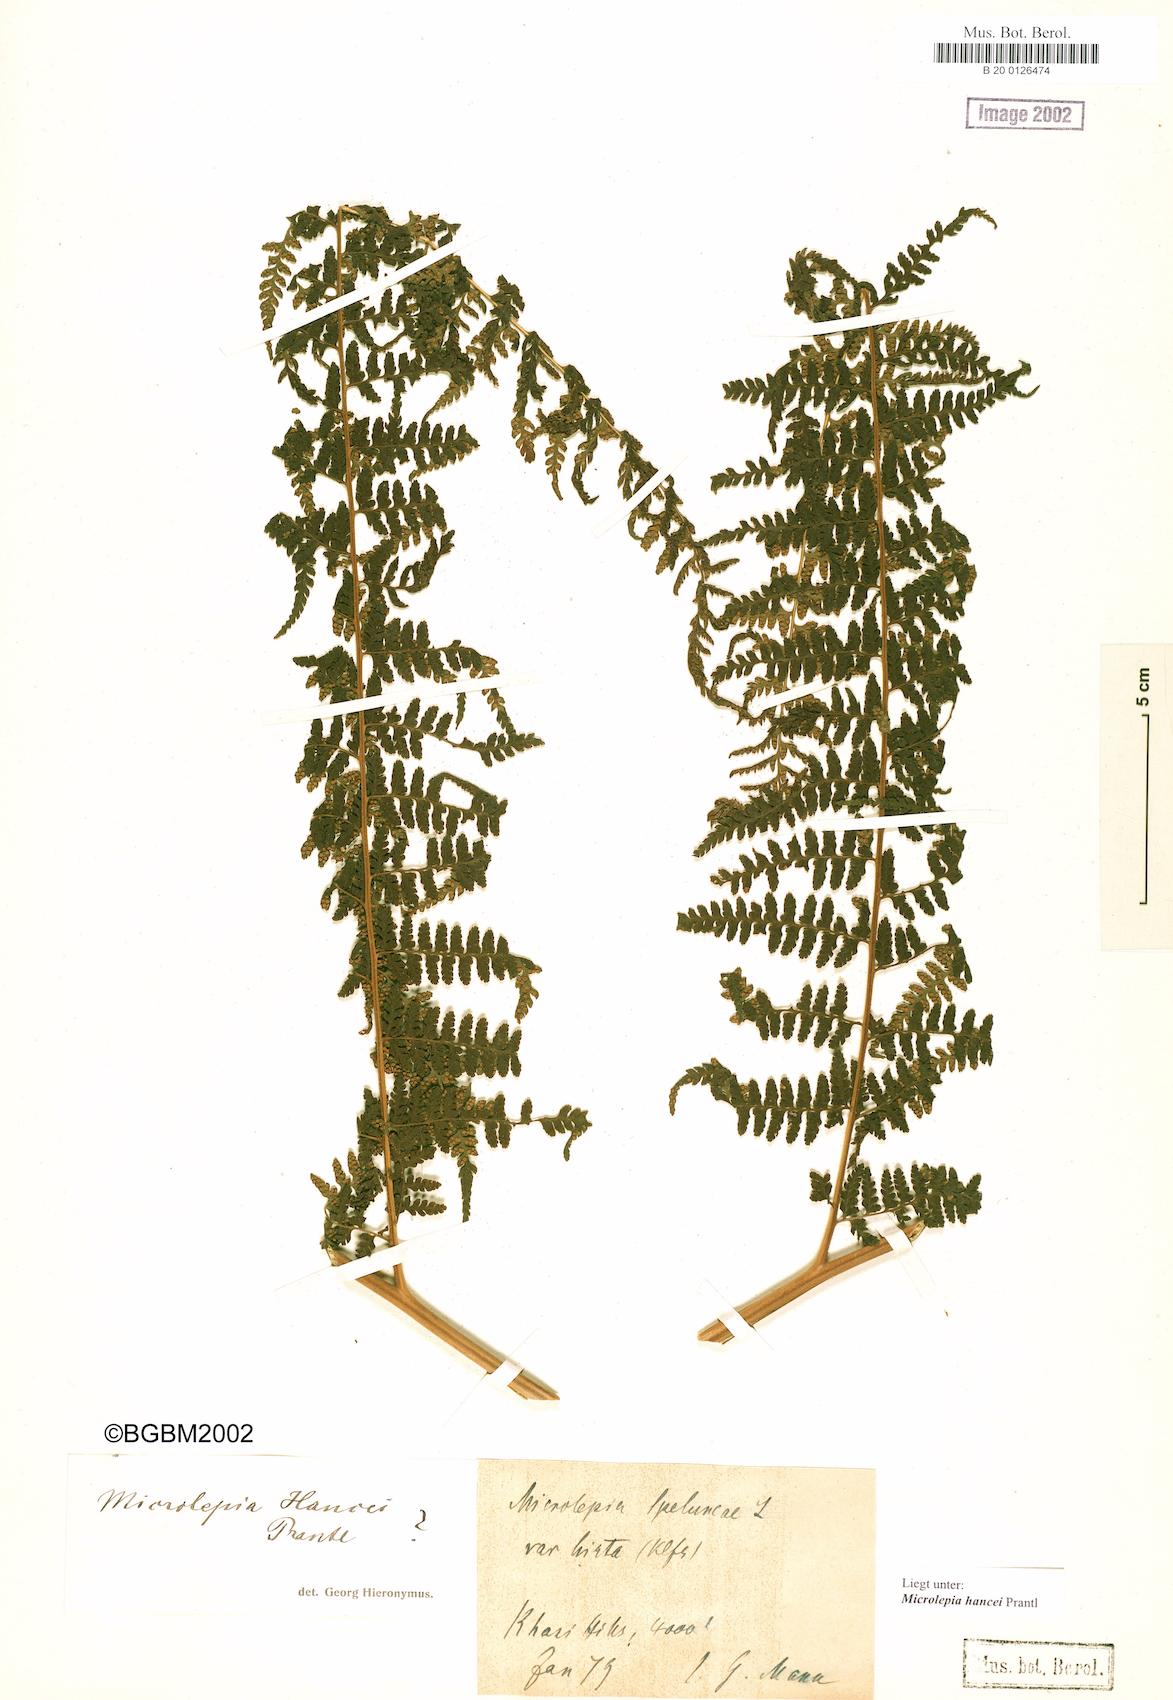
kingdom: Plantae
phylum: Tracheophyta
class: Polypodiopsida
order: Polypodiales
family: Dennstaedtiaceae
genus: Microlepia
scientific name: Microlepia nepalensis
